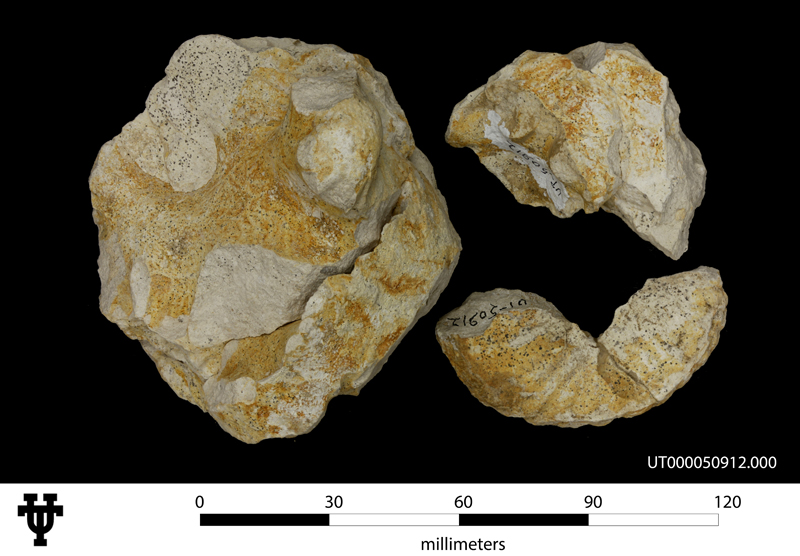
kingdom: Animalia
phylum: Mollusca
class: Cephalopoda
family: Collignoniceratidae
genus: Texanites
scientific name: Texanites
